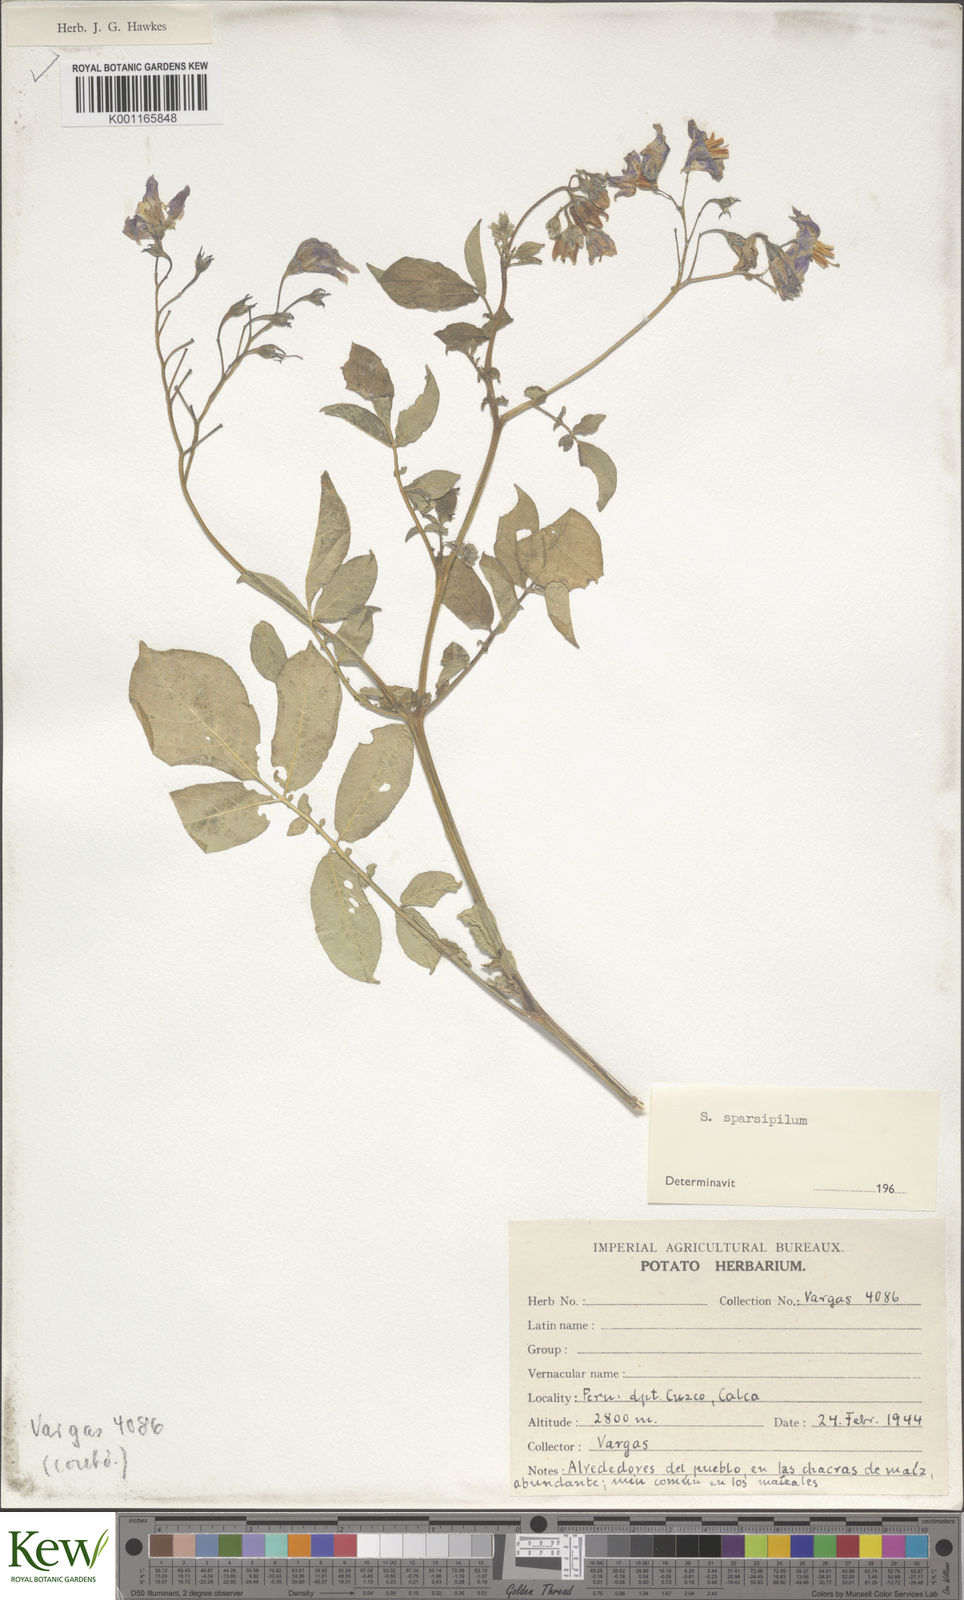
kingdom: Plantae
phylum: Tracheophyta
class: Magnoliopsida
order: Solanales
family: Solanaceae
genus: Solanum
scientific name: Solanum brevicaule
